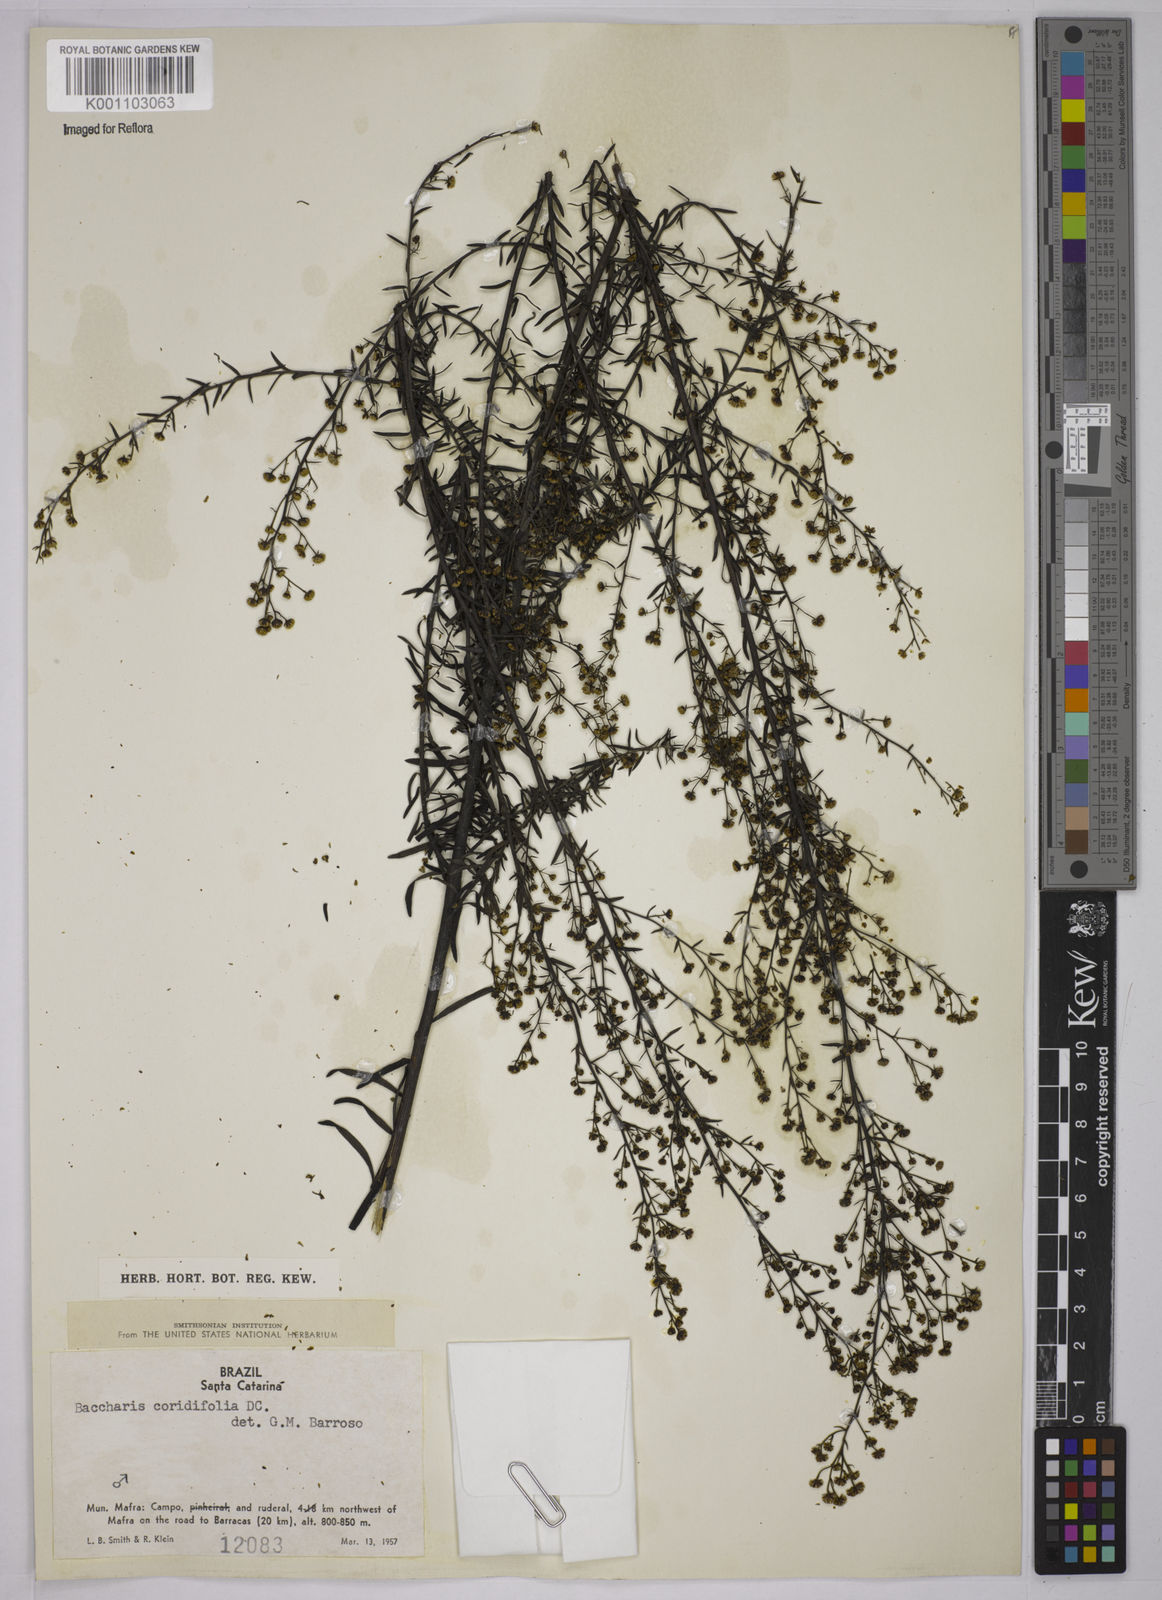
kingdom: Plantae
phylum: Tracheophyta
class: Magnoliopsida
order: Asterales
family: Asteraceae
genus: Baccharis
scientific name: Baccharis coridifolia
